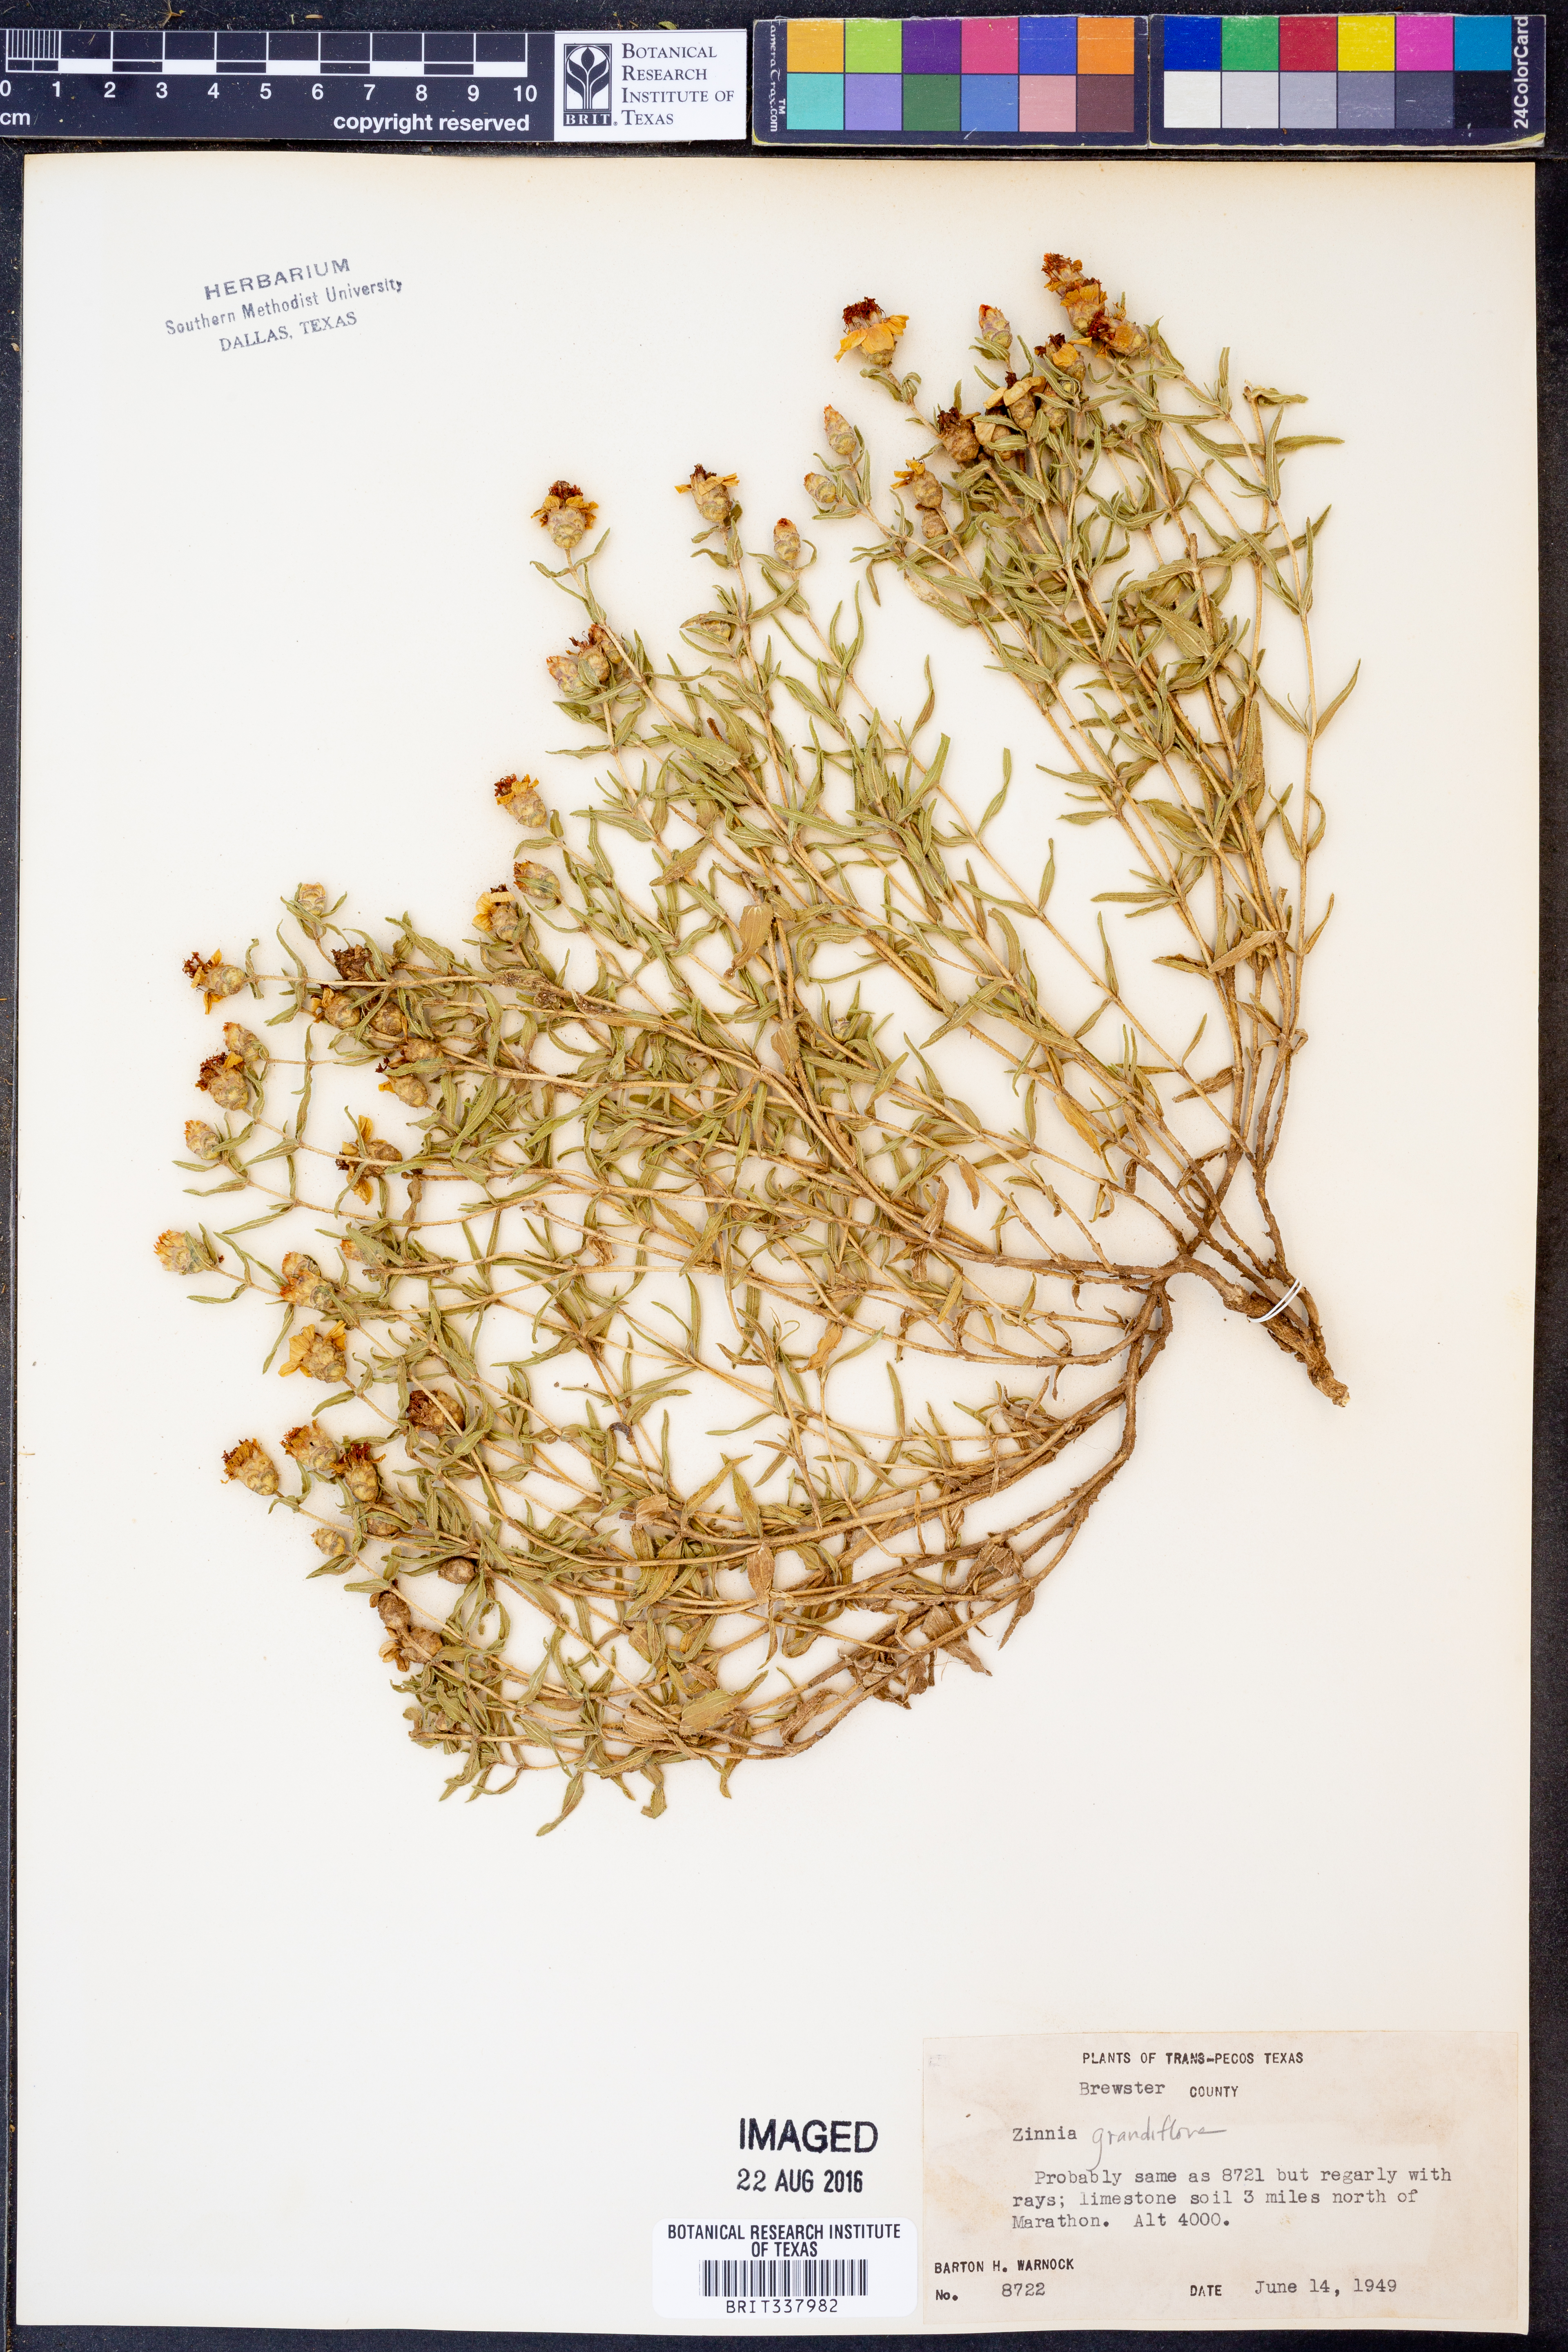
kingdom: Plantae
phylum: Tracheophyta
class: Magnoliopsida
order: Asterales
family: Asteraceae
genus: Zinnia
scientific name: Zinnia grandiflora
